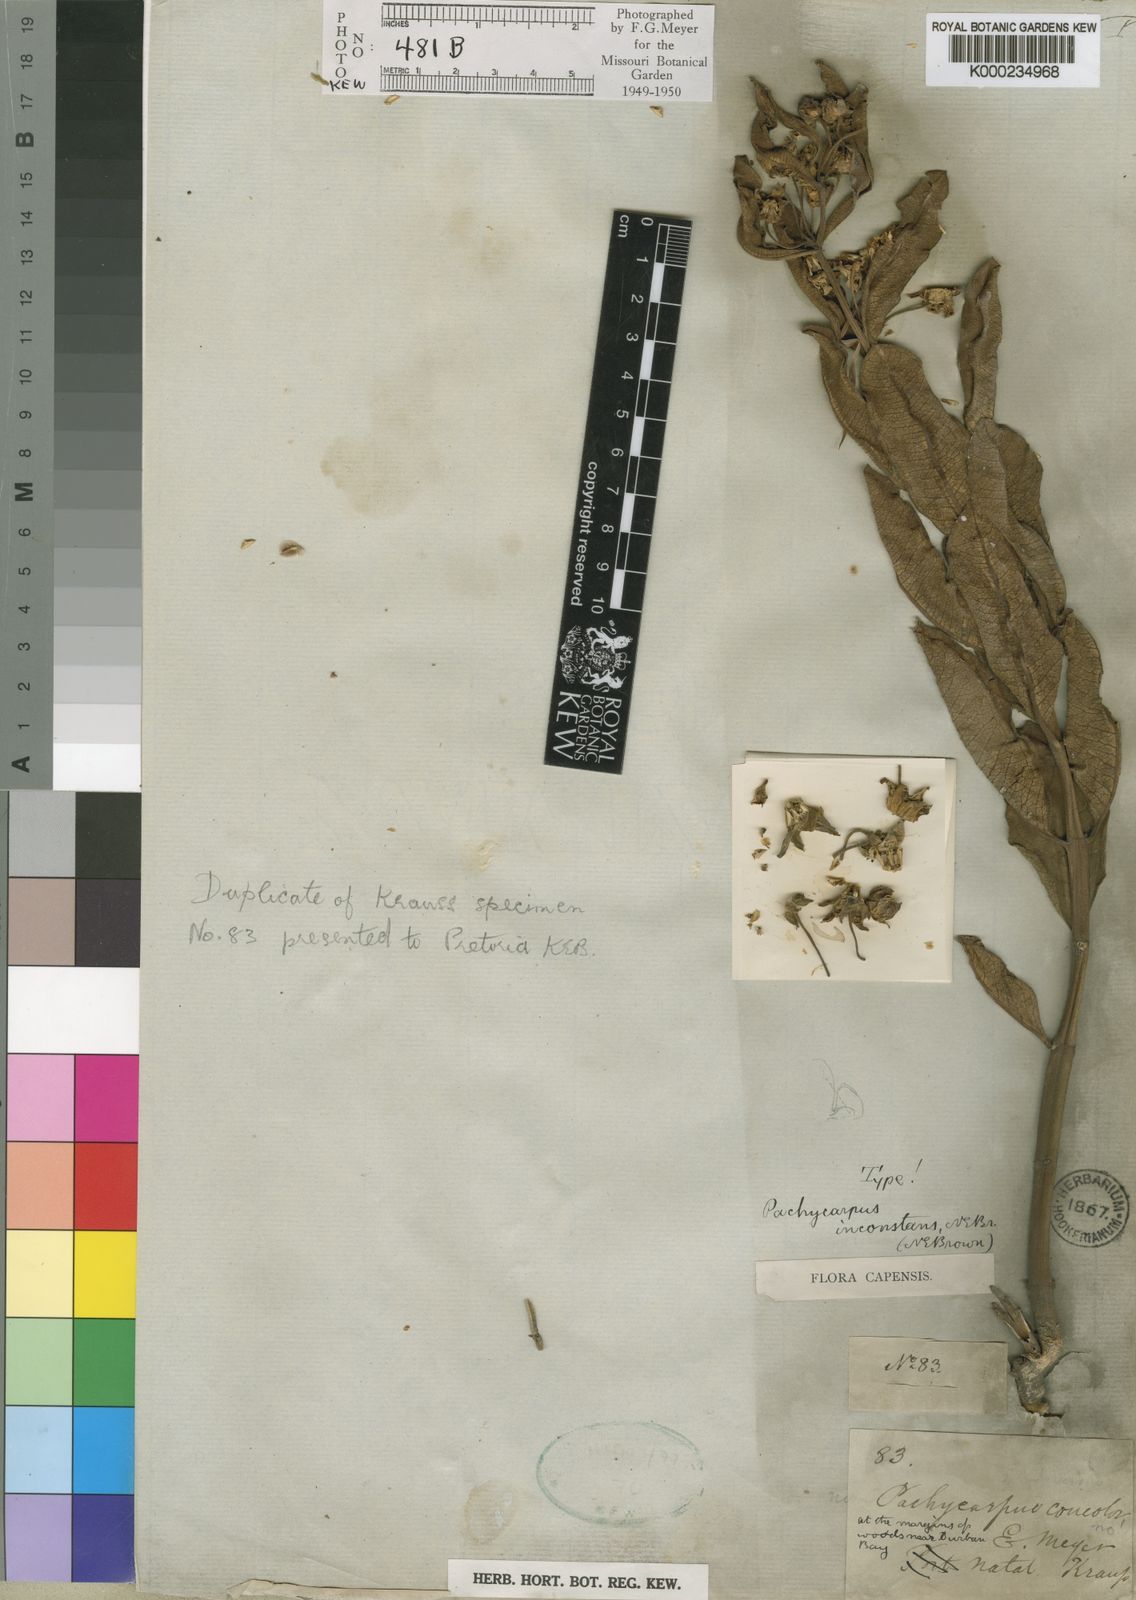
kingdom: Plantae
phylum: Tracheophyta
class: Magnoliopsida
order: Gentianales
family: Apocynaceae
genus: Pachycarpus
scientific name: Pachycarpus asperifolius
